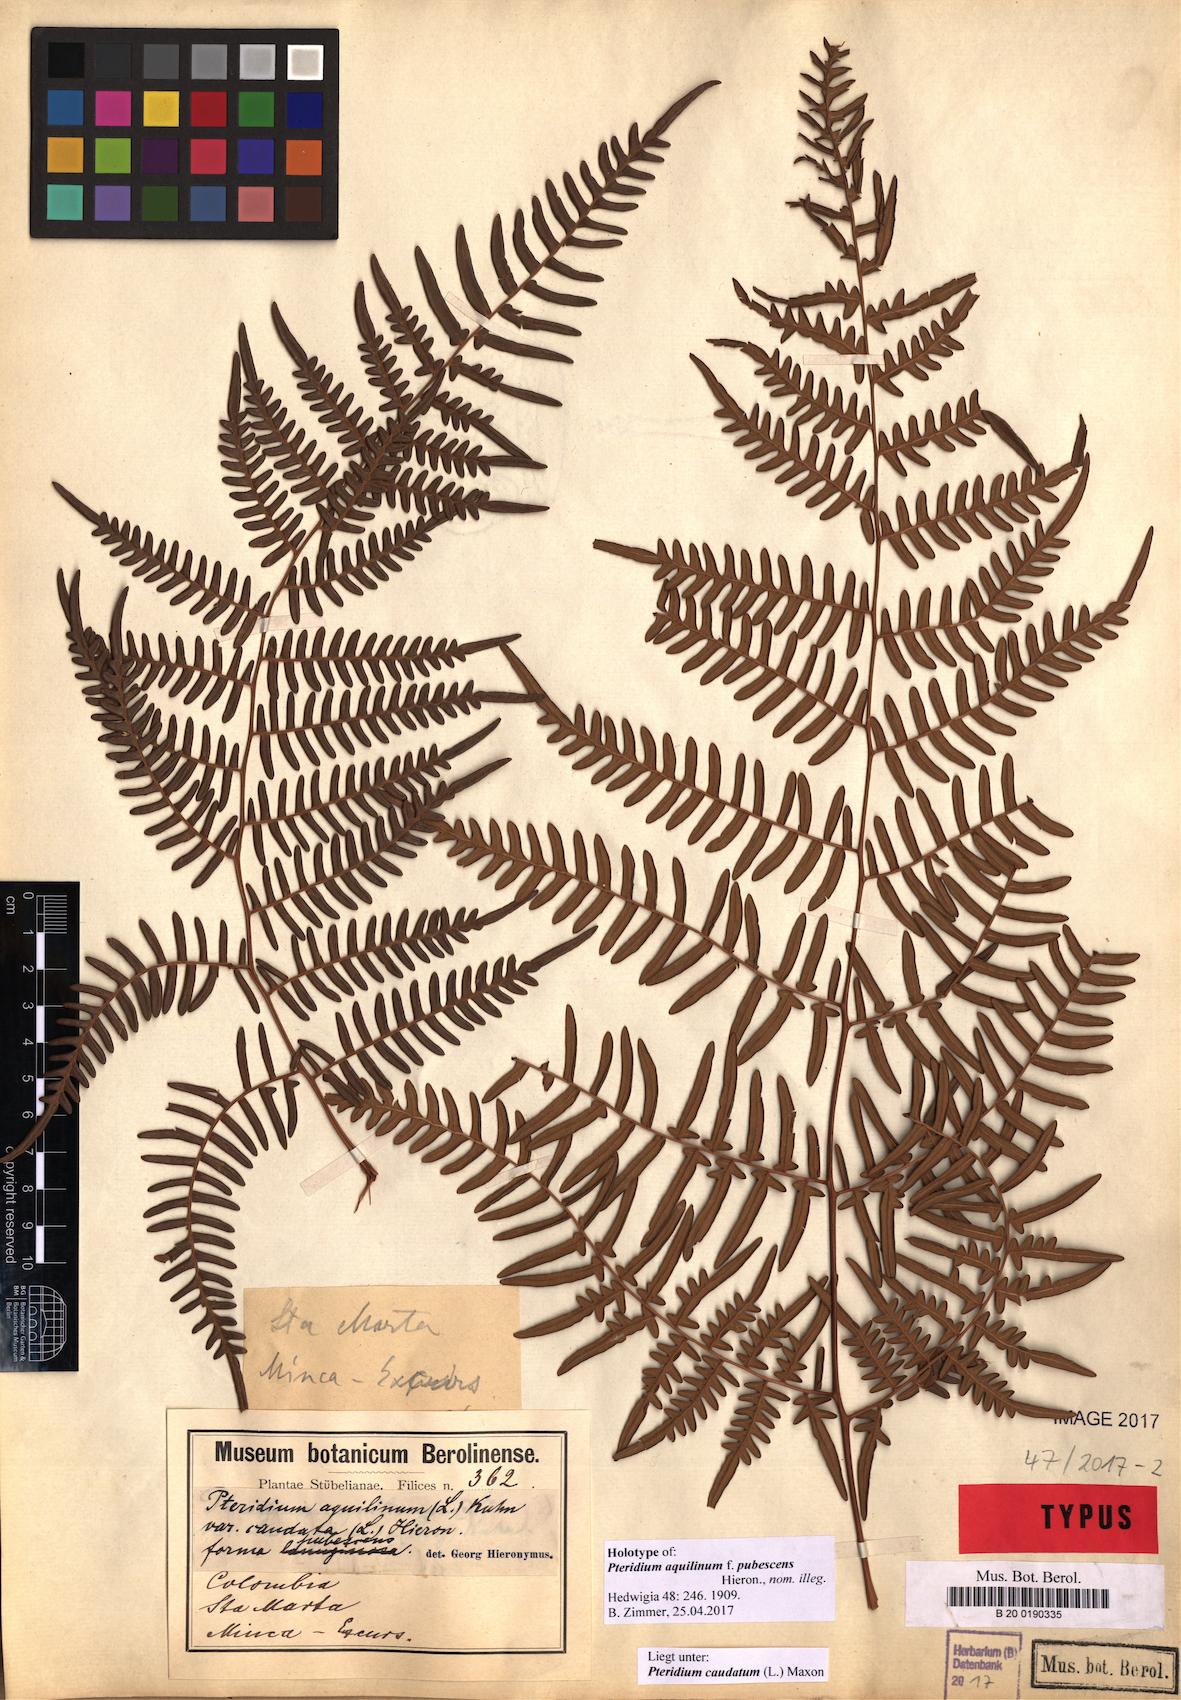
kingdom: Plantae
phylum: Tracheophyta
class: Polypodiopsida
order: Polypodiales
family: Dennstaedtiaceae
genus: Pteridium
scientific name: Pteridium caudatum
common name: Southern bracken fern
